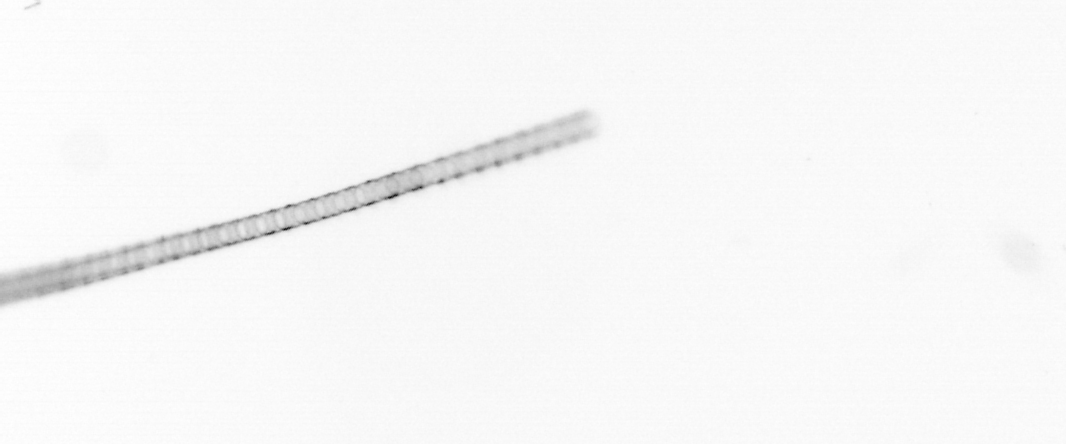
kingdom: Chromista
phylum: Ochrophyta
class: Bacillariophyceae
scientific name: Bacillariophyceae
